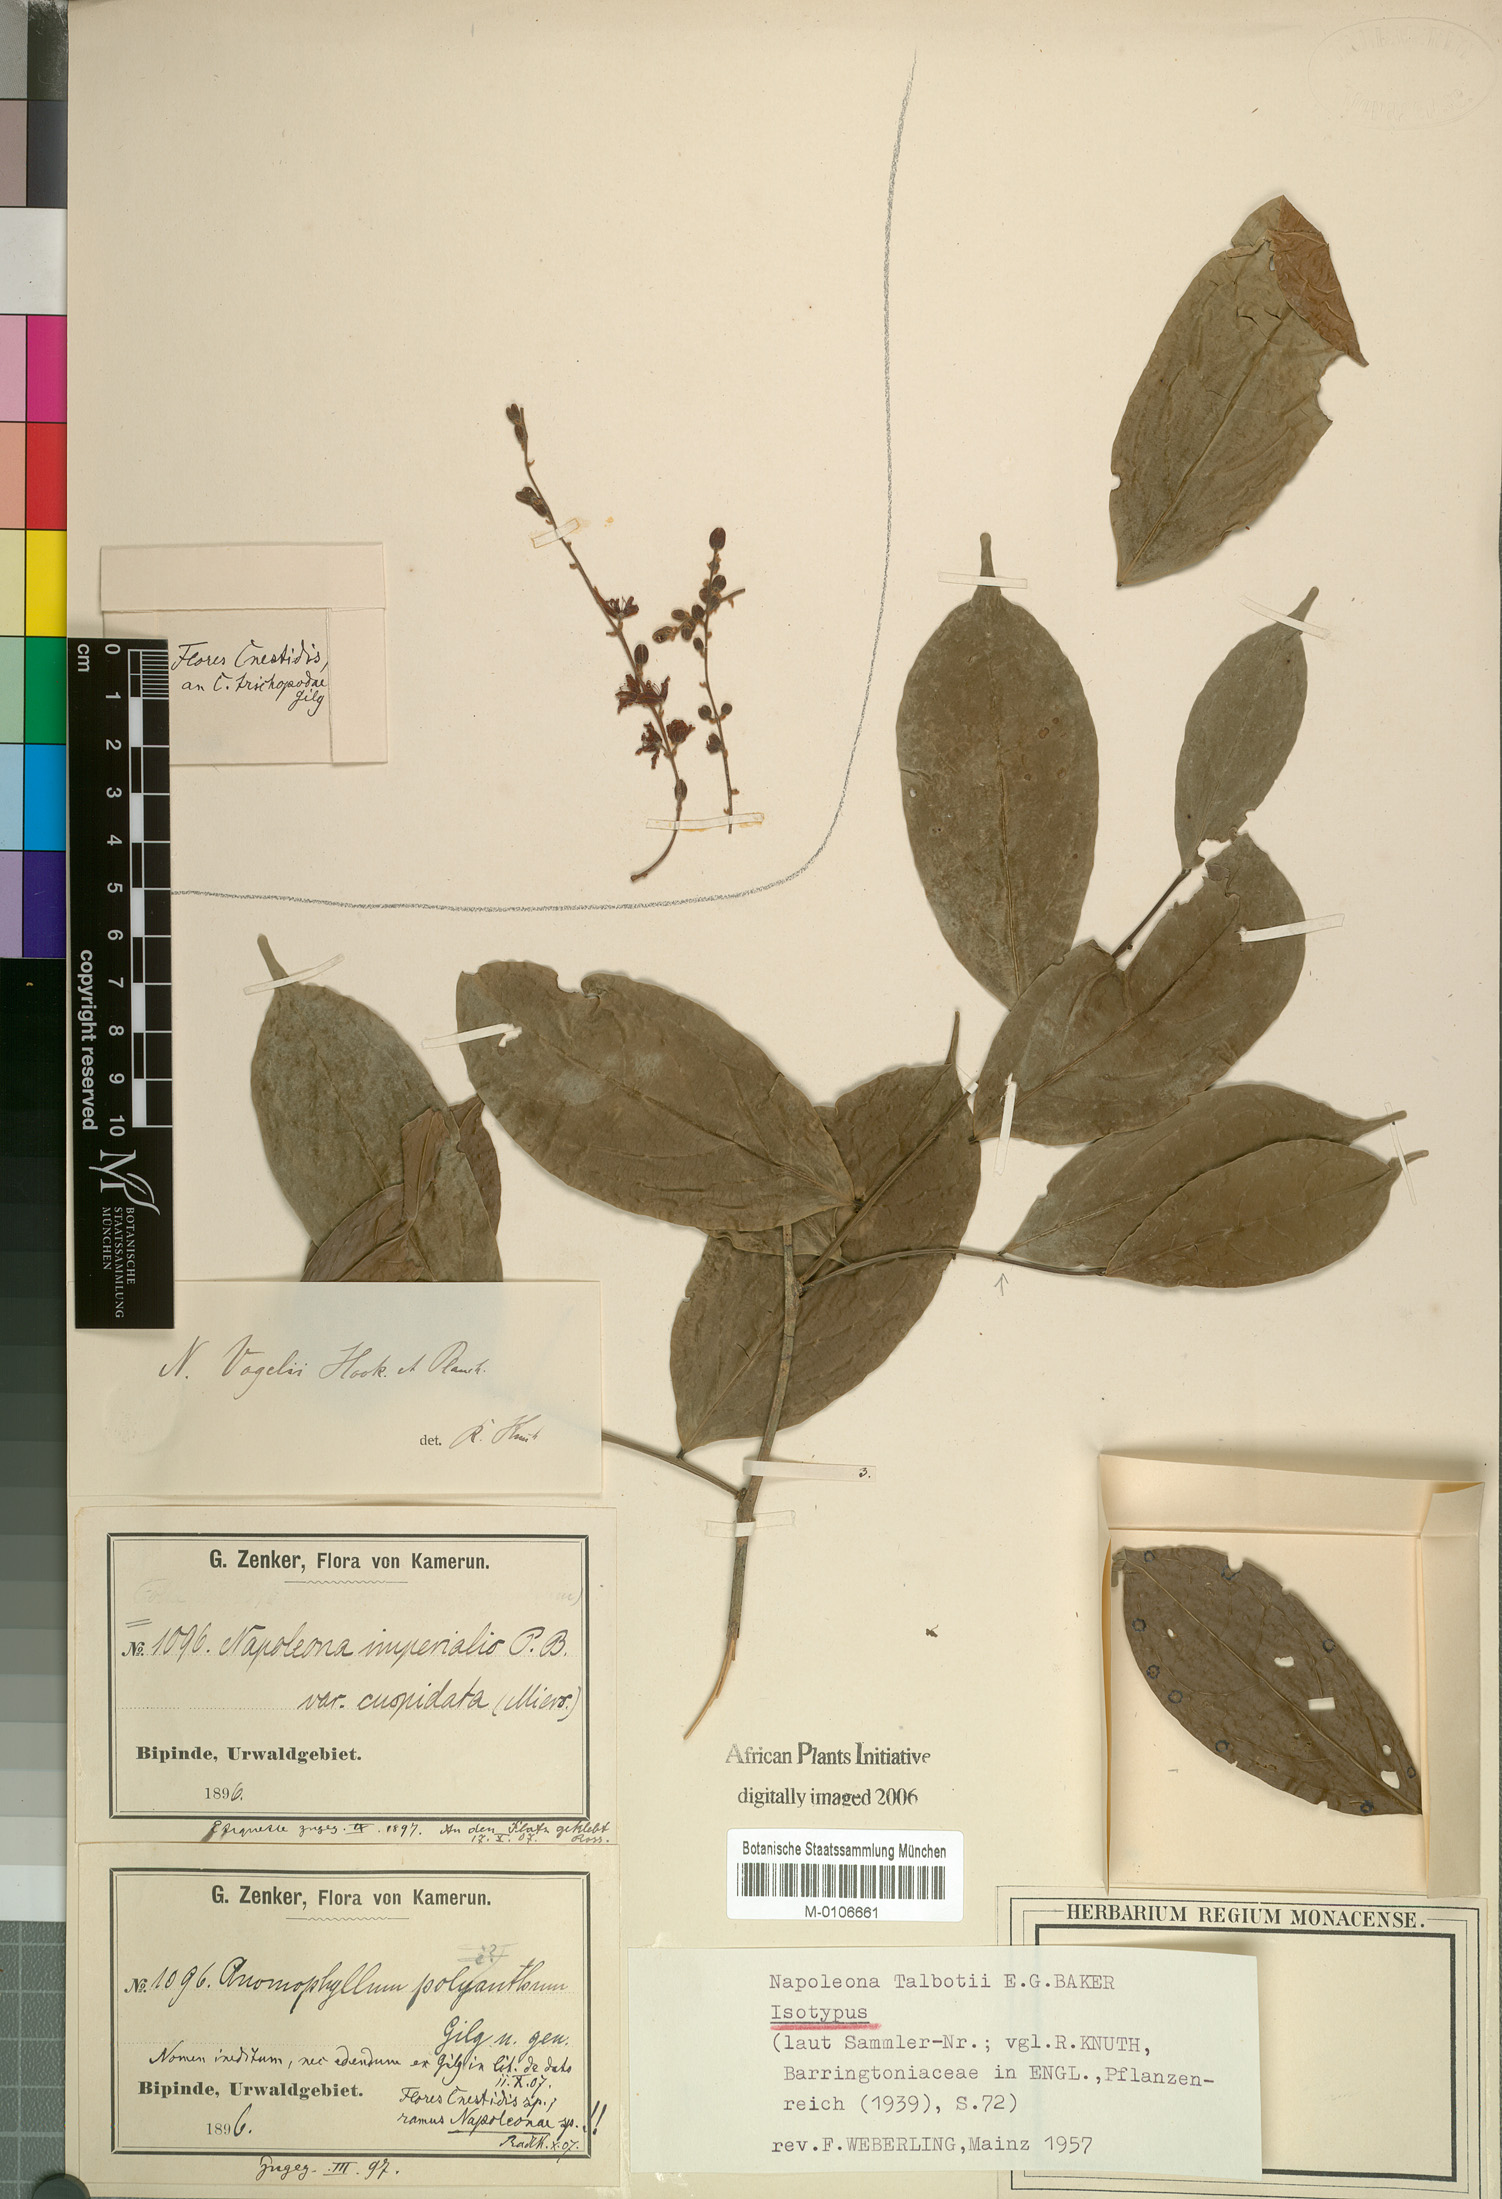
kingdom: Plantae
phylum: Tracheophyta
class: Magnoliopsida
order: Ericales
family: Lecythidaceae
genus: Napoleonaea
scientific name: Napoleonaea talbotii
